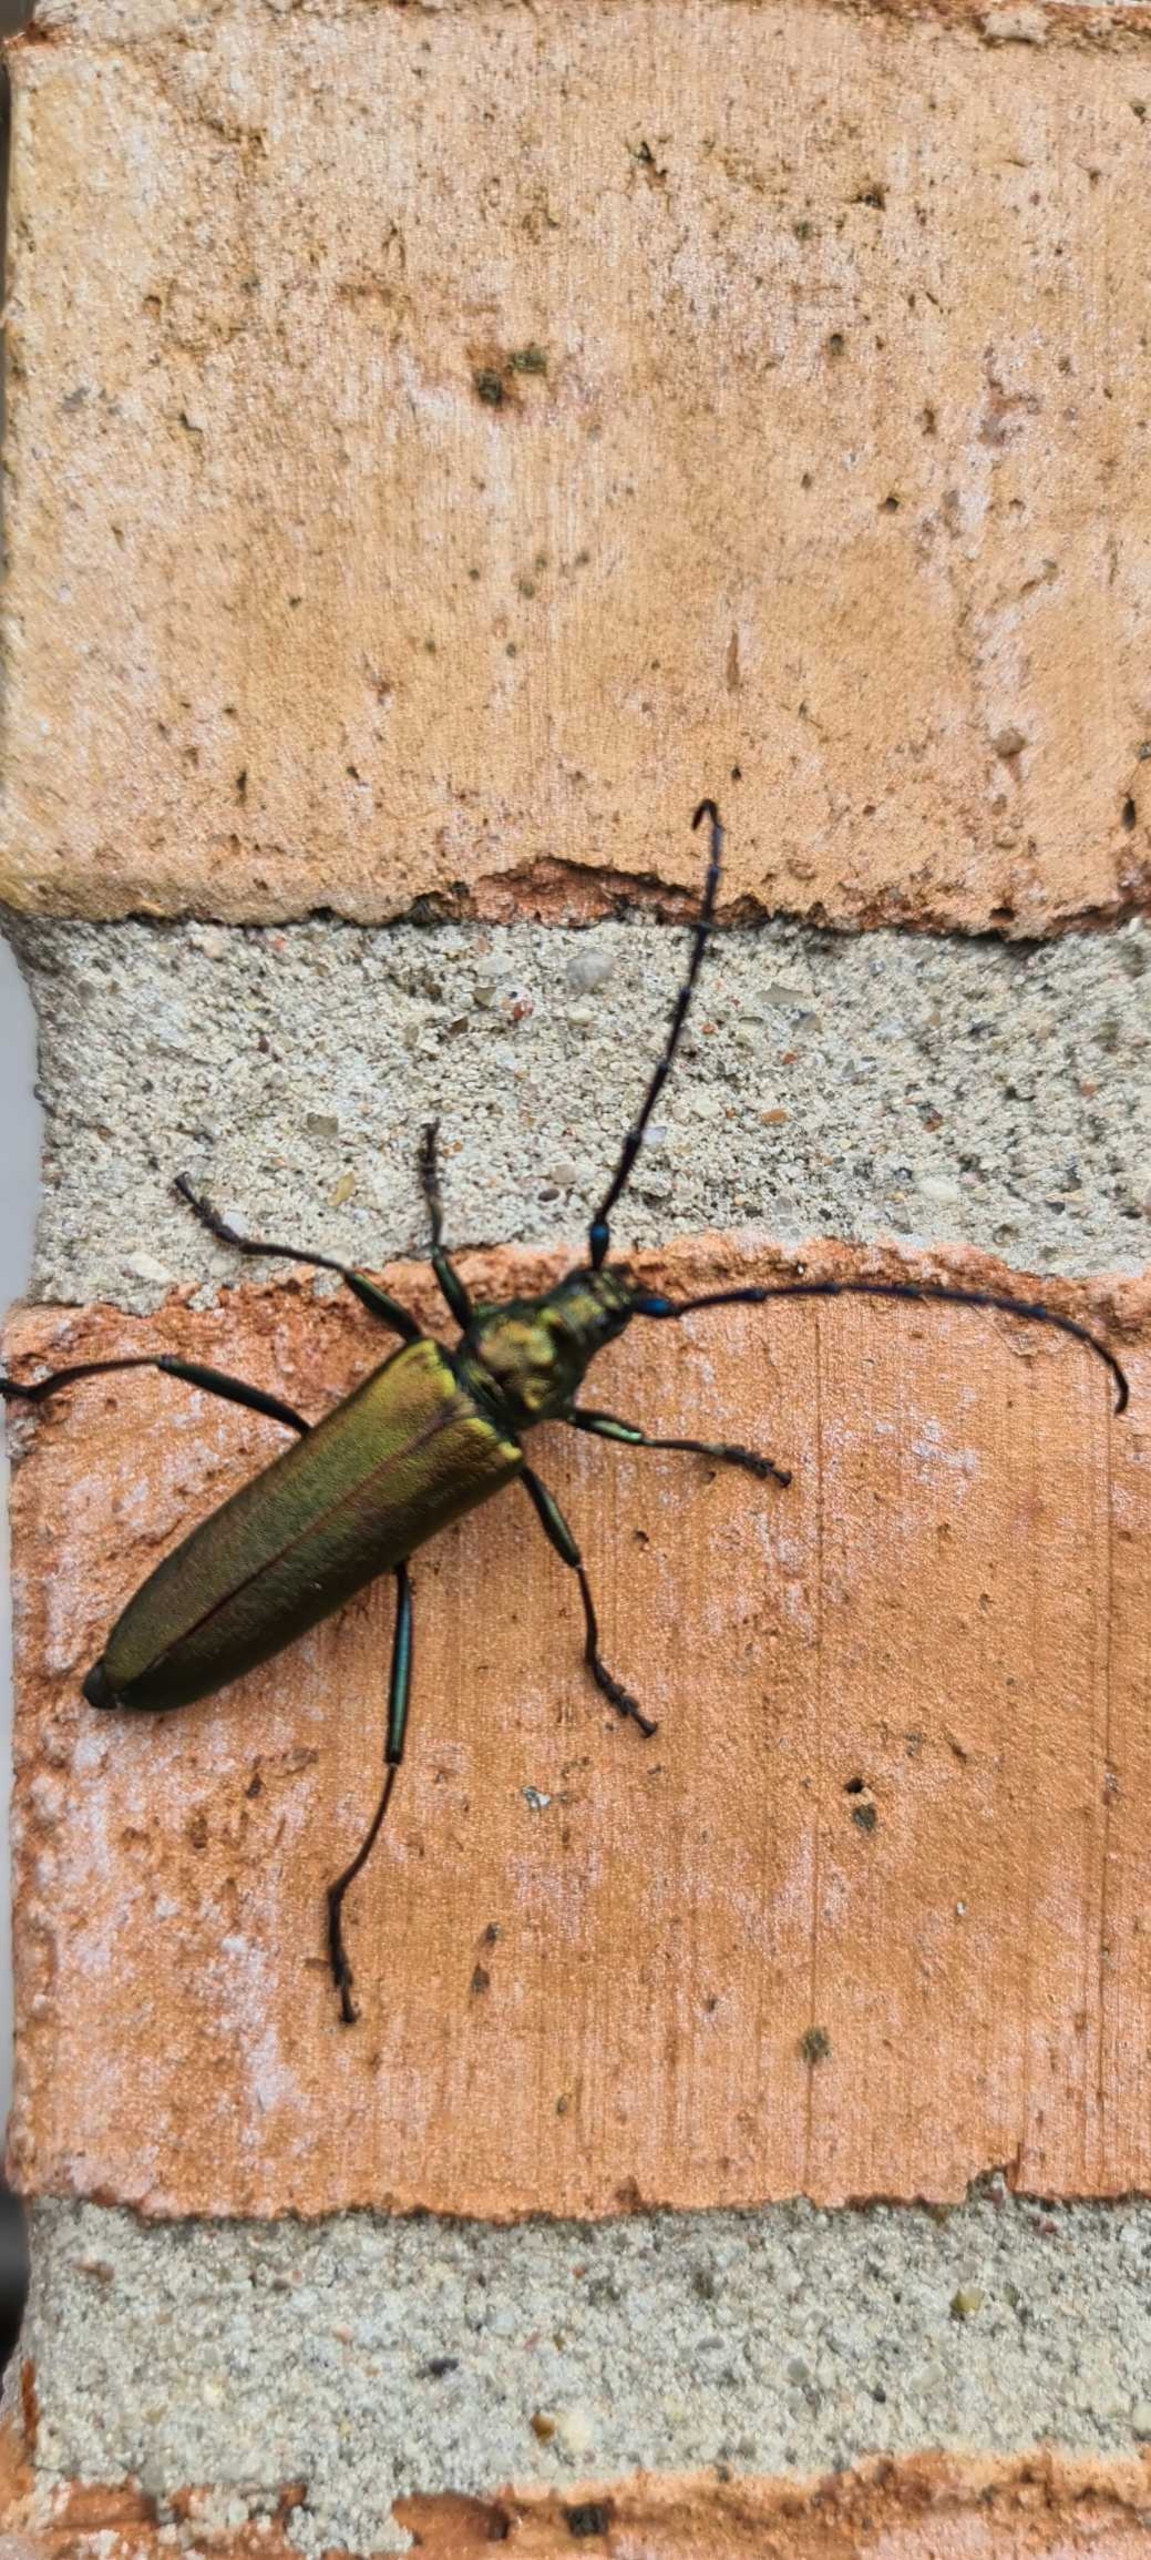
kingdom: Animalia
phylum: Arthropoda
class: Insecta
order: Coleoptera
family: Cerambycidae
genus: Aromia
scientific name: Aromia moschata
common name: Moskusbuk
